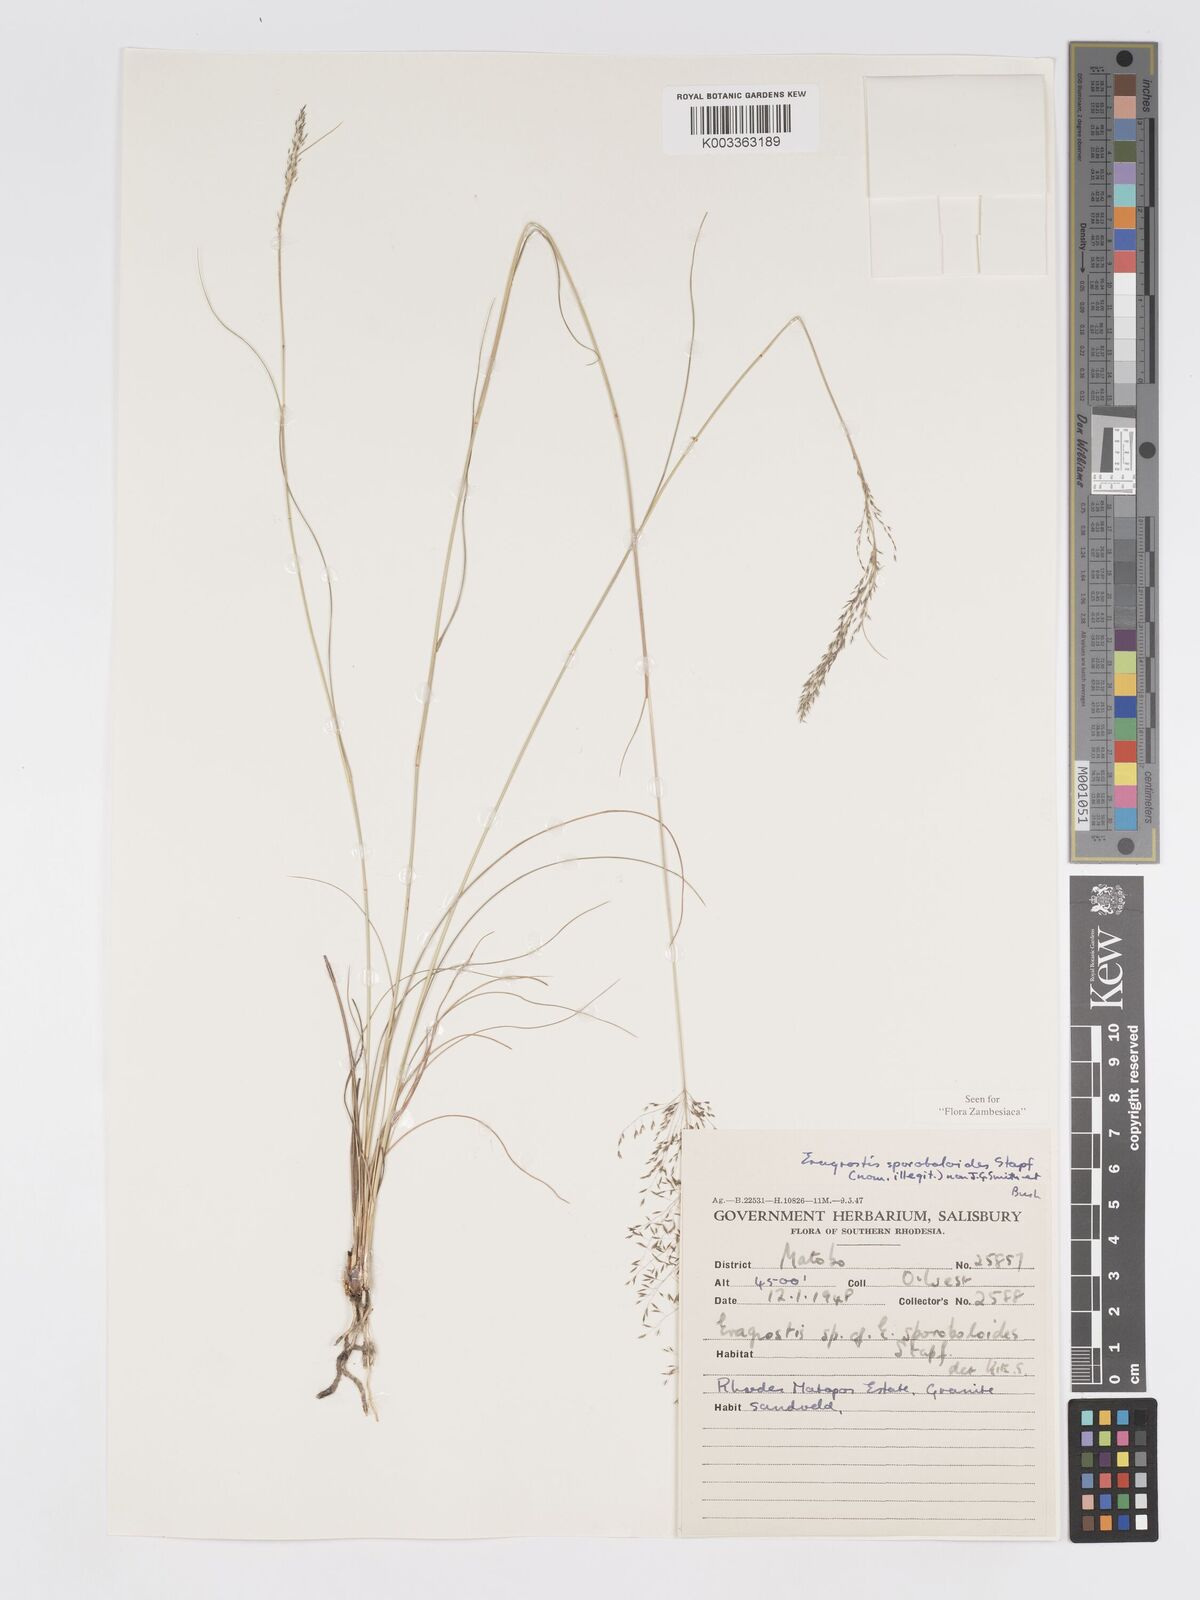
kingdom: Plantae
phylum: Tracheophyta
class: Liliopsida
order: Poales
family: Poaceae
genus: Eragrostis
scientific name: Eragrostis stapfii
